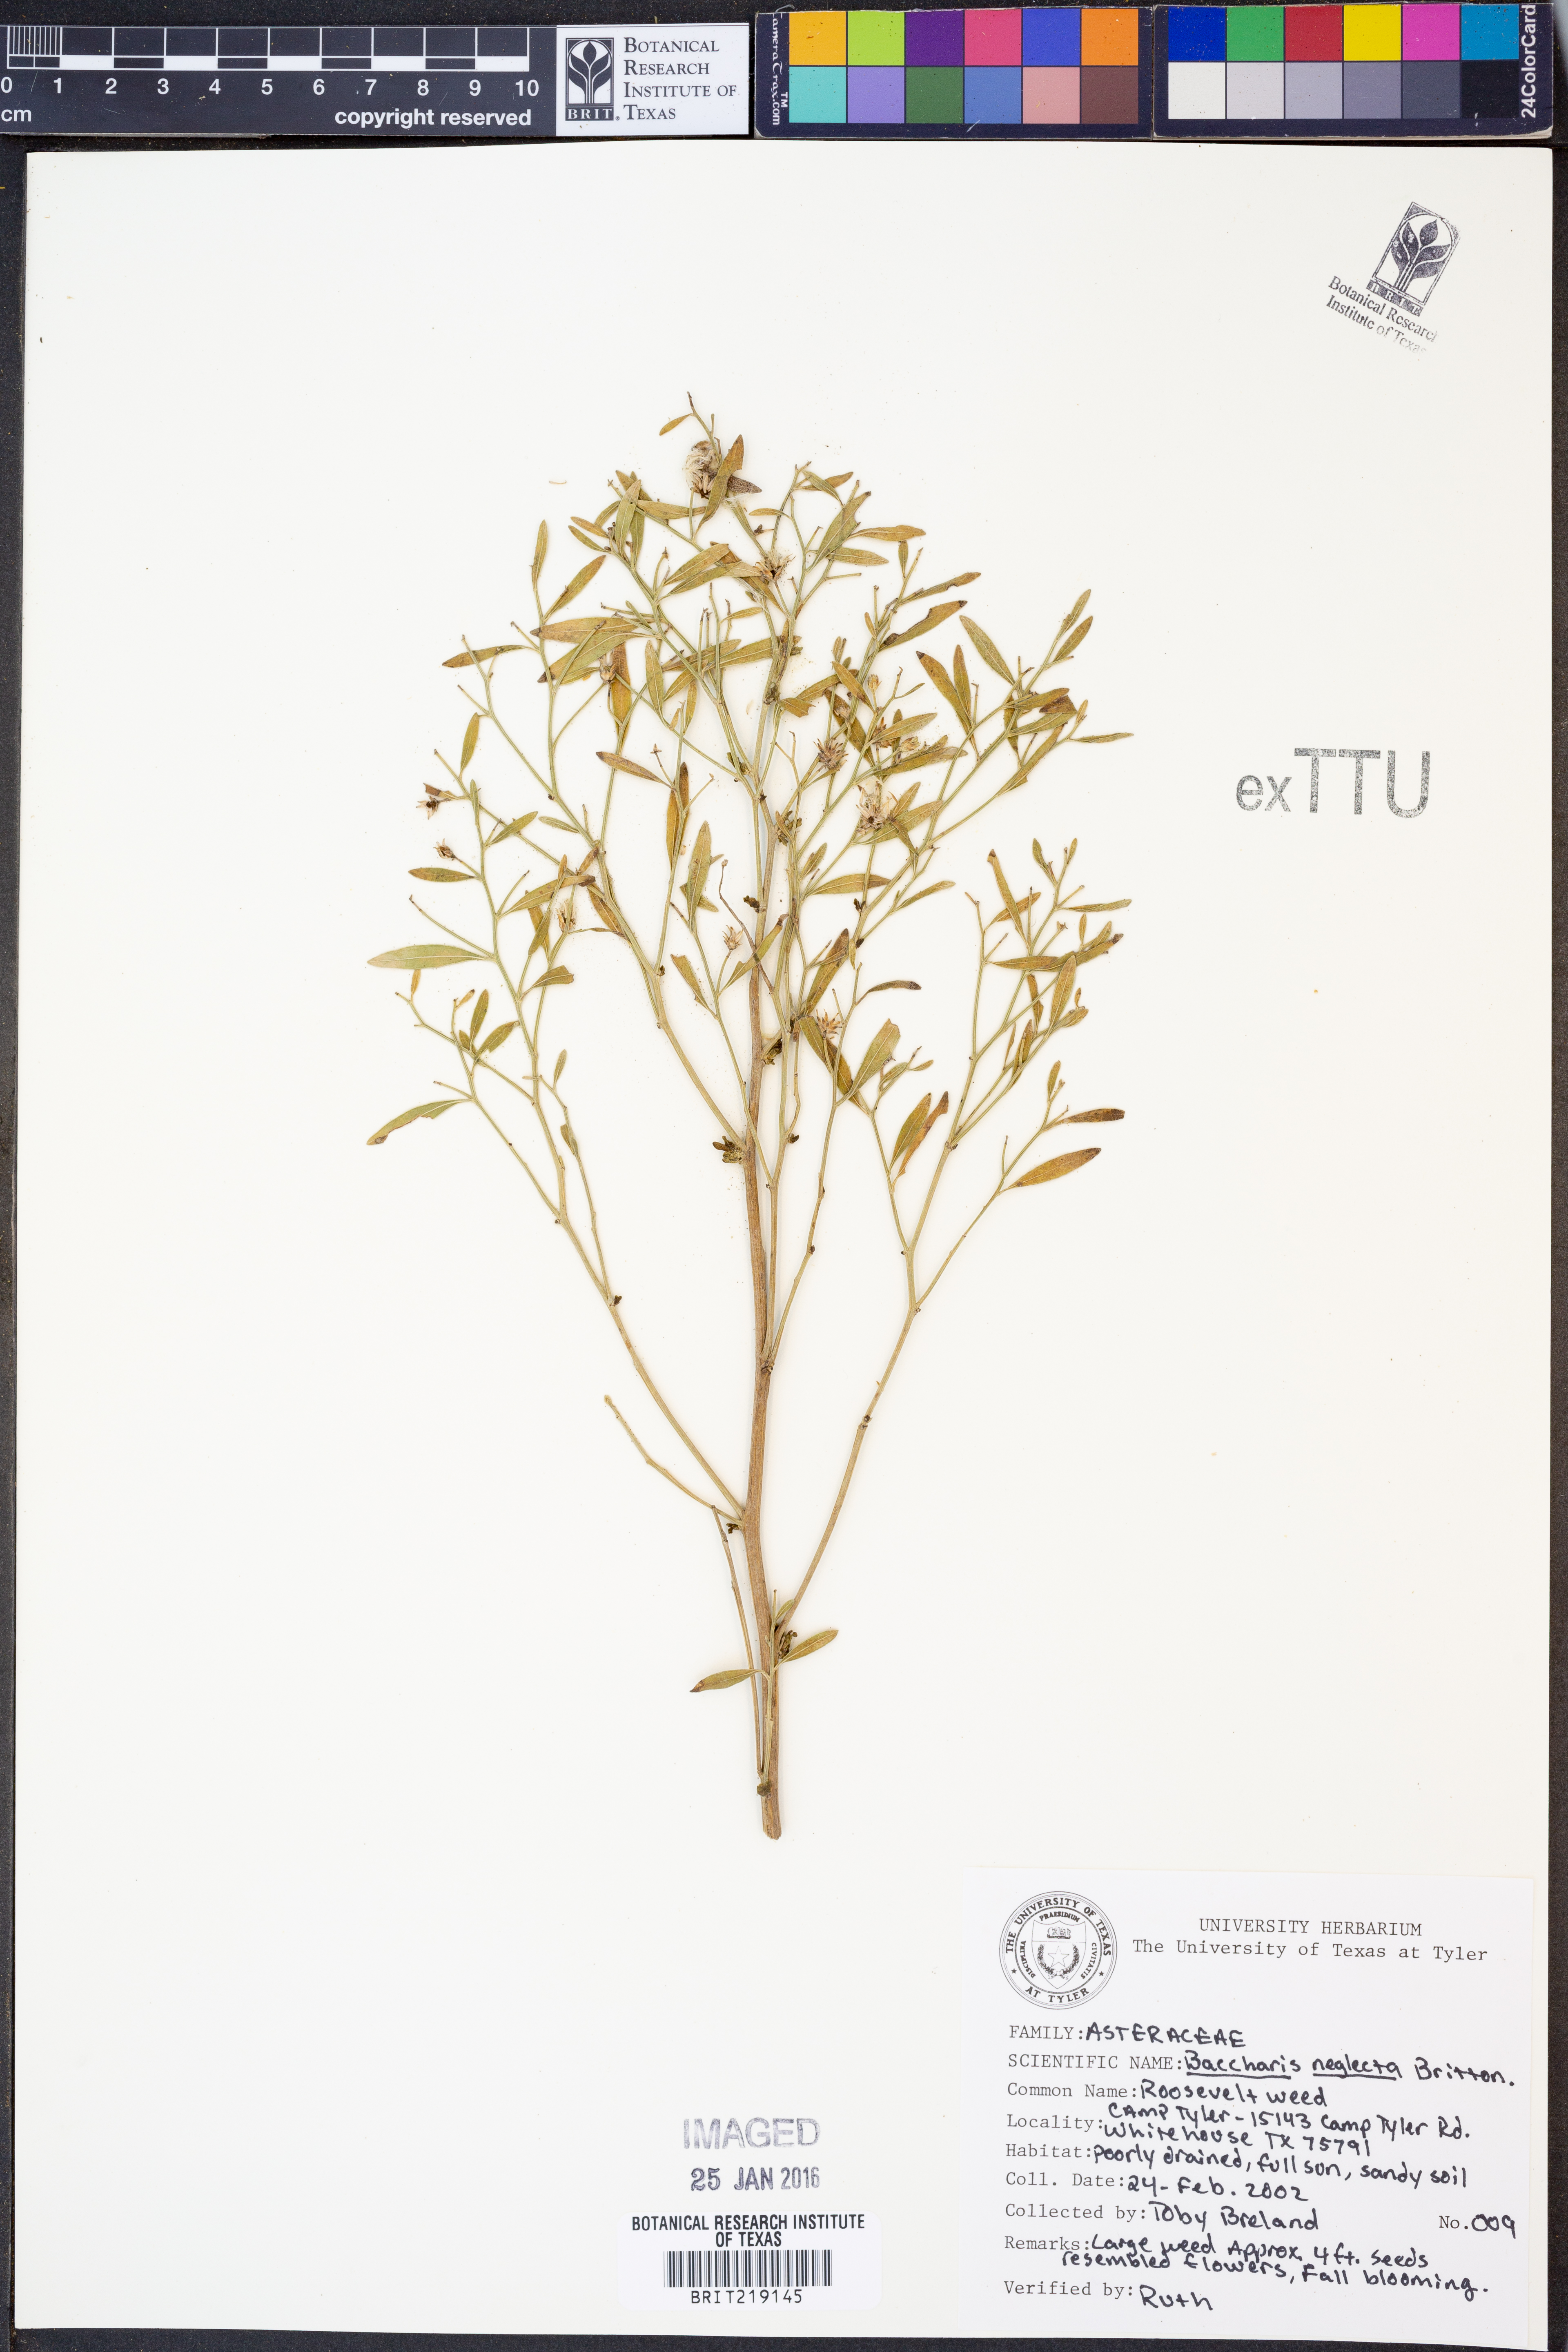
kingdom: Plantae
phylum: Tracheophyta
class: Magnoliopsida
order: Asterales
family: Asteraceae
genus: Baccharis
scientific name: Baccharis neglecta
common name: Roosevelt-weed
